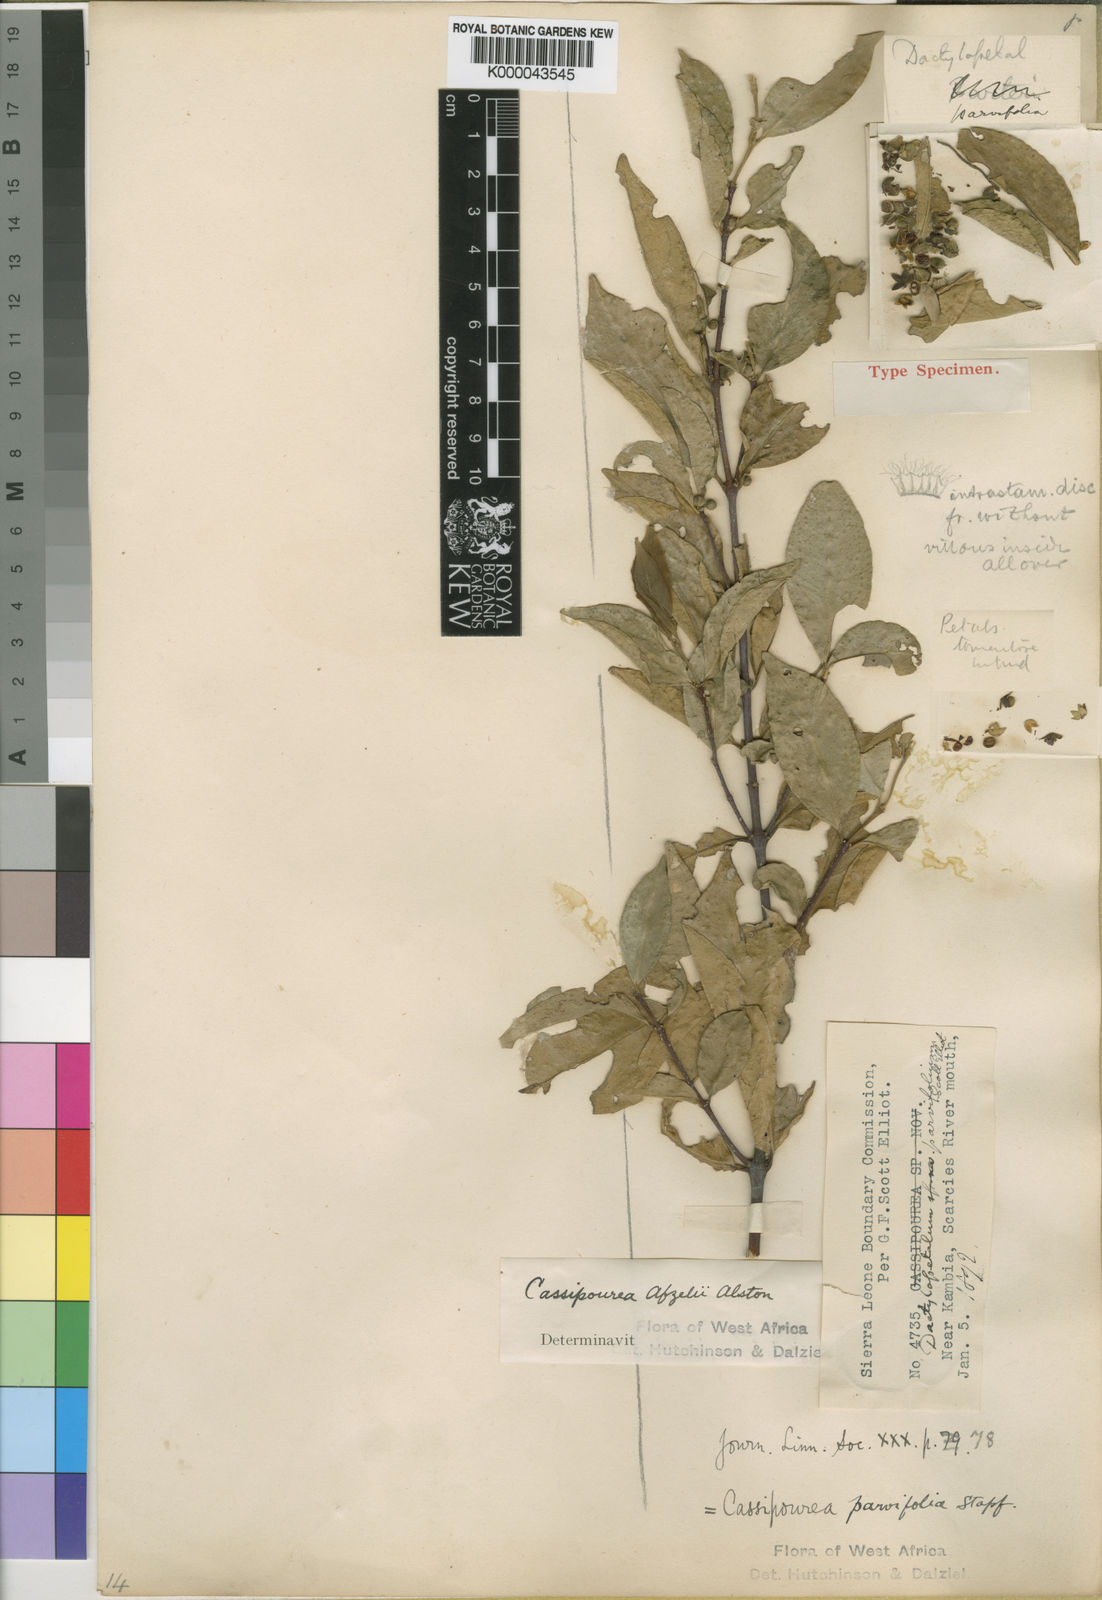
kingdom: Plantae
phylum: Tracheophyta
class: Magnoliopsida
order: Malpighiales
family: Rhizophoraceae
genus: Cassipourea
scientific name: Cassipourea afzelii
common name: Elephant tusk tree
